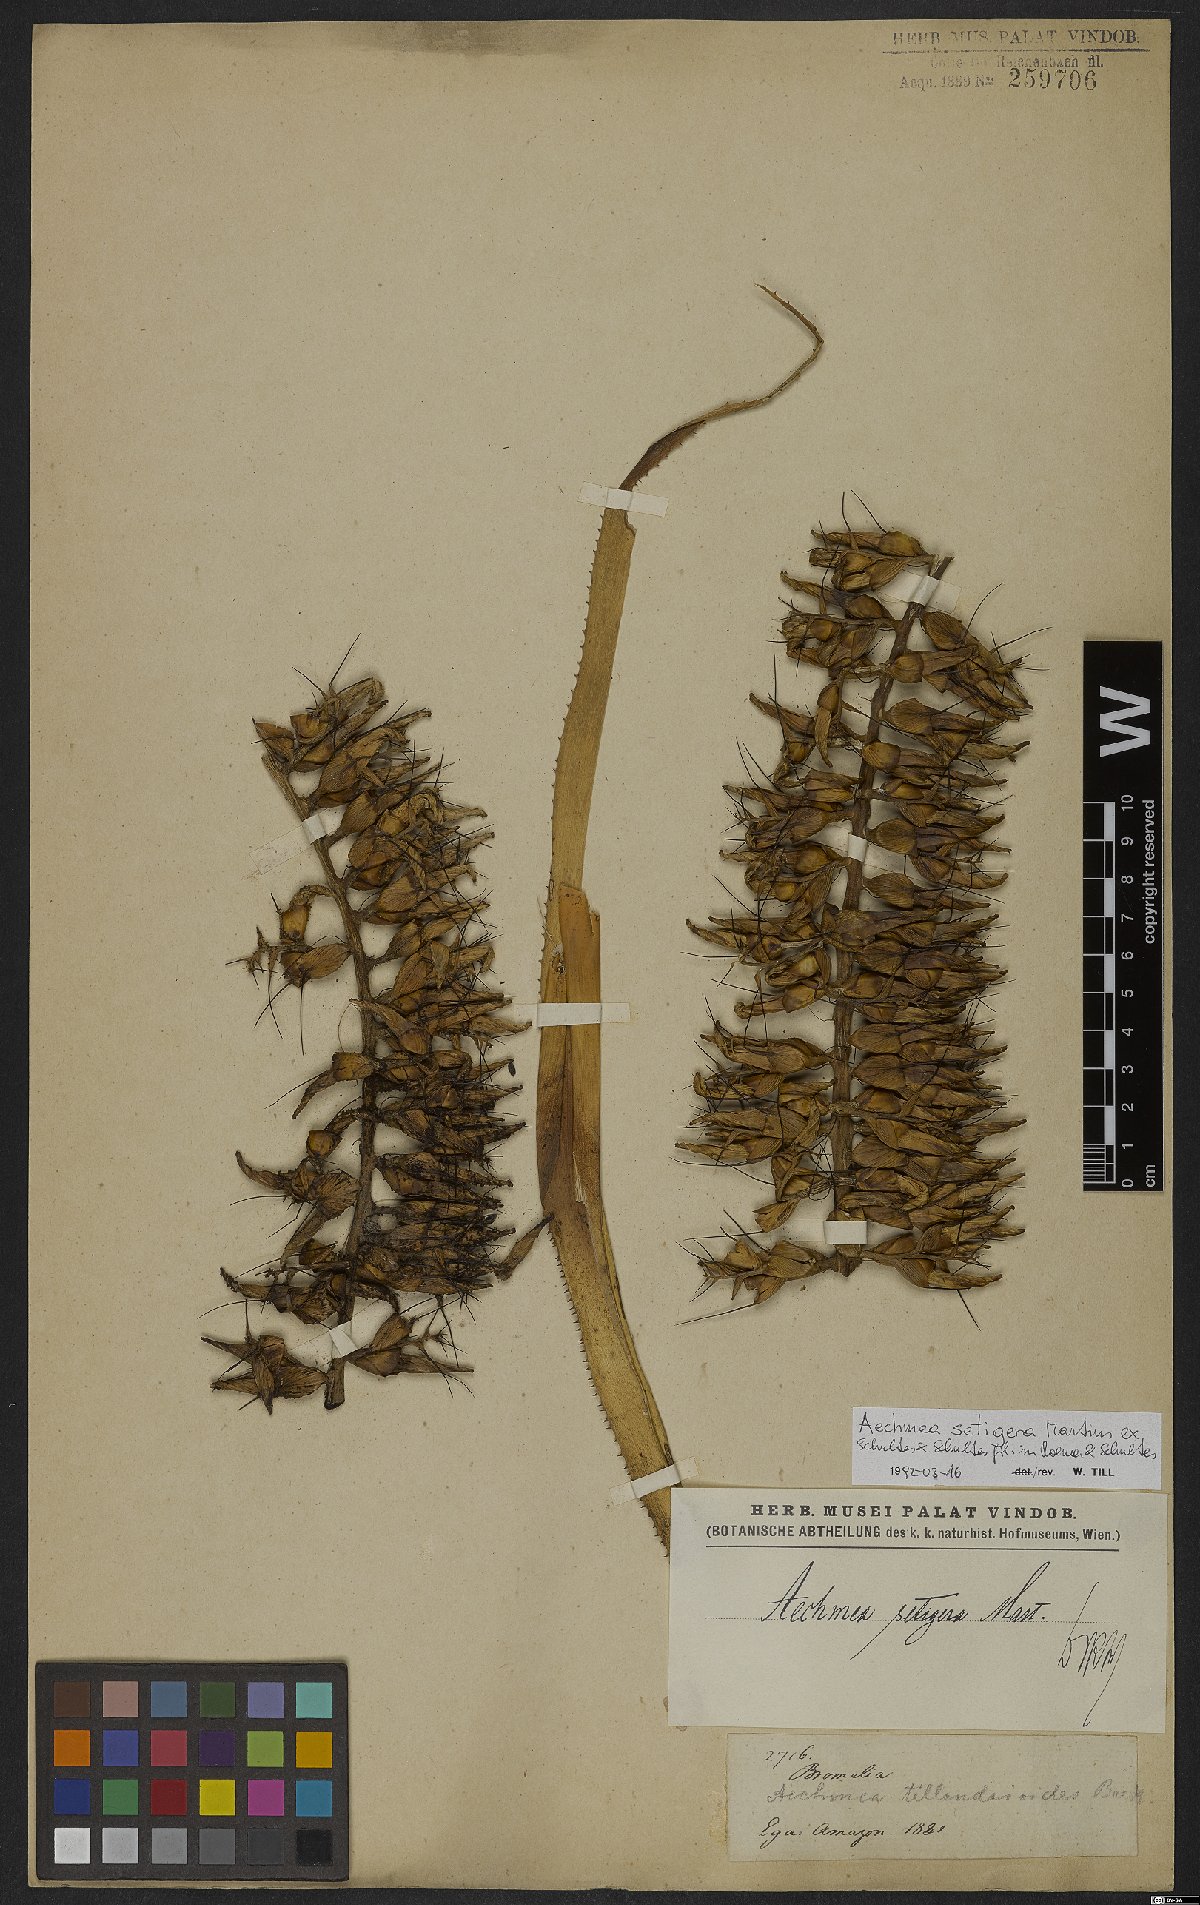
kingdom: Plantae
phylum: Tracheophyta
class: Liliopsida
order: Poales
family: Bromeliaceae
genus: Aechmea
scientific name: Aechmea setigera
